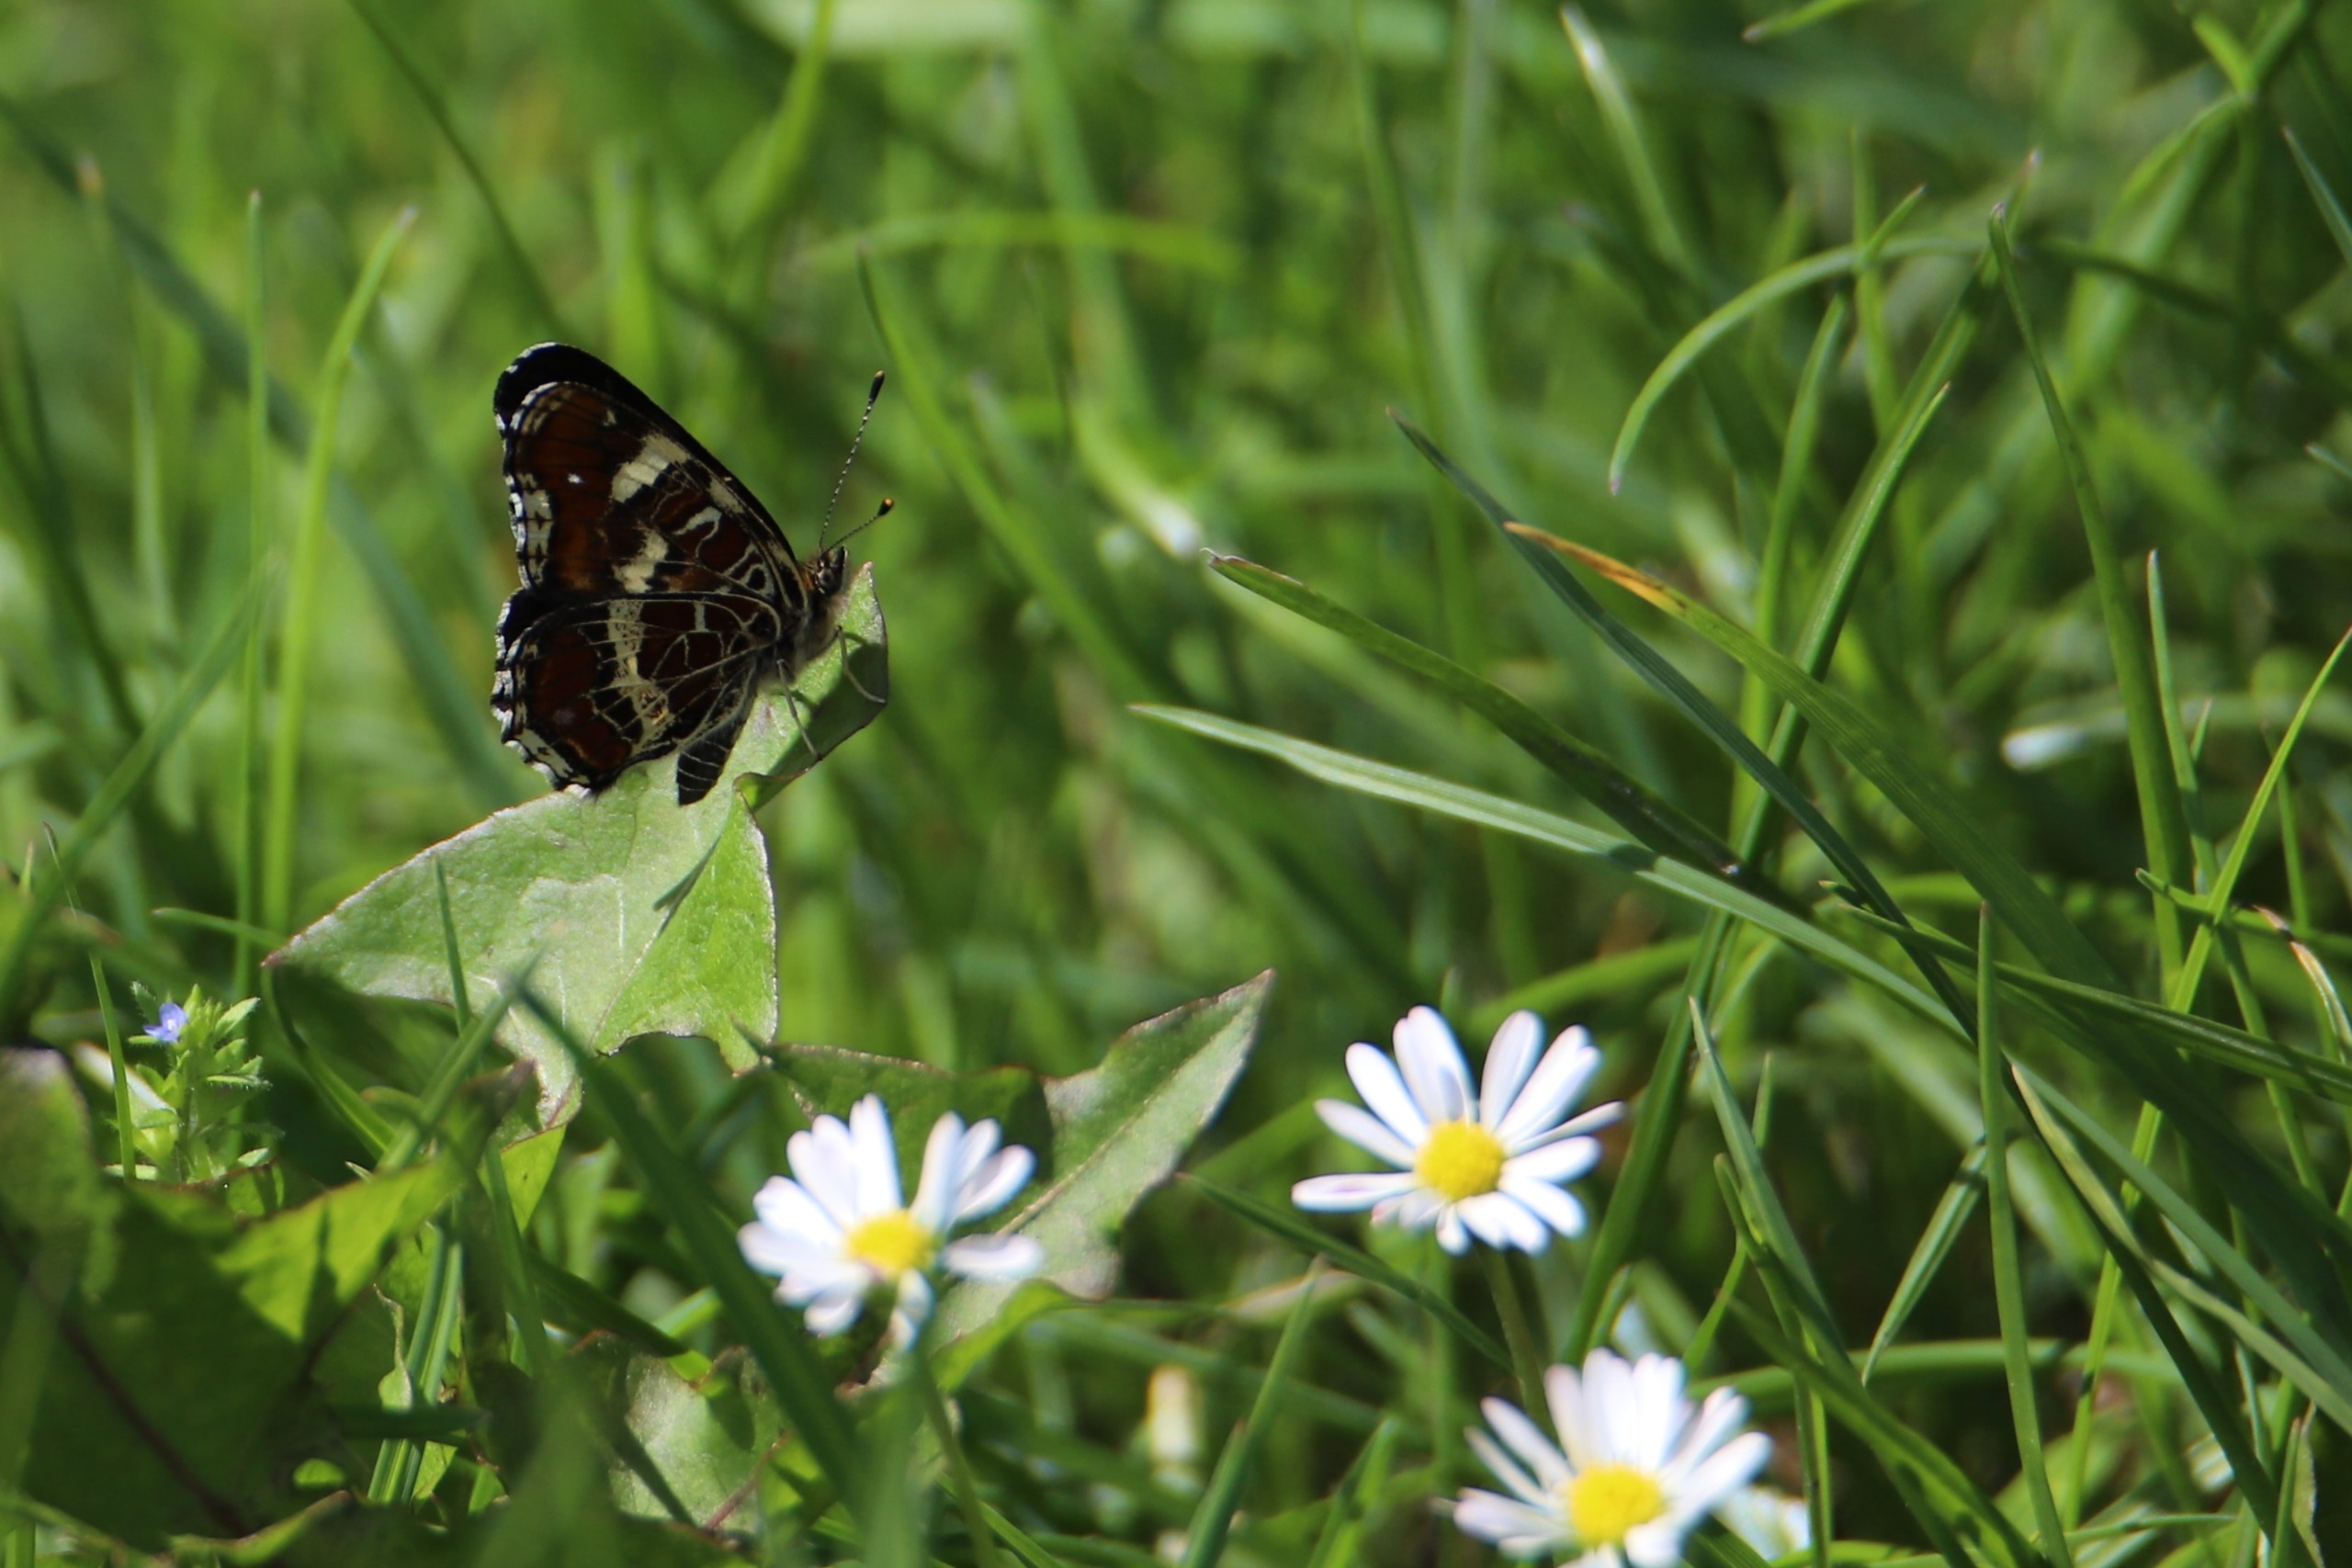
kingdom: Animalia
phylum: Arthropoda
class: Insecta
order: Lepidoptera
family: Nymphalidae
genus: Araschnia
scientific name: Araschnia levana
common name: Nældesommerfugl
